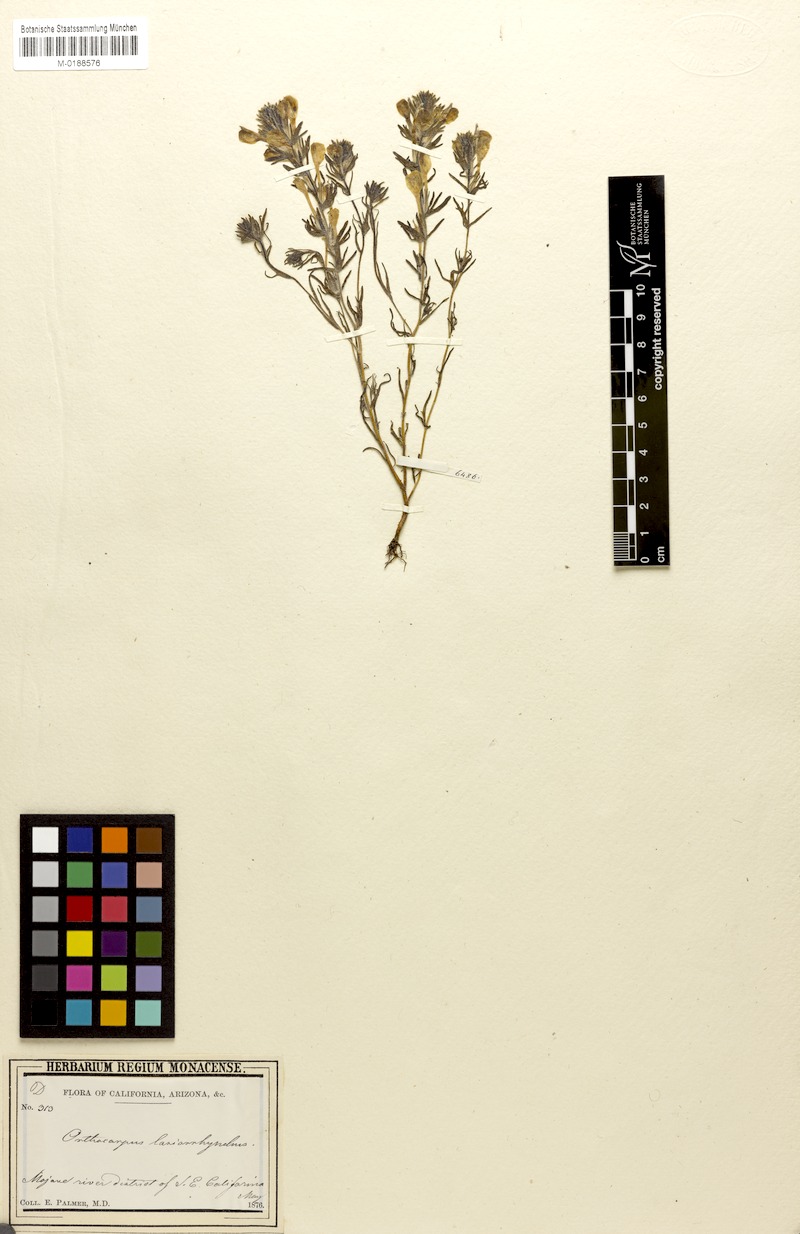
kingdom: Plantae
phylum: Tracheophyta
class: Magnoliopsida
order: Lamiales
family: Orobanchaceae
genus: Castilleja
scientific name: Castilleja lasiorhyncha
